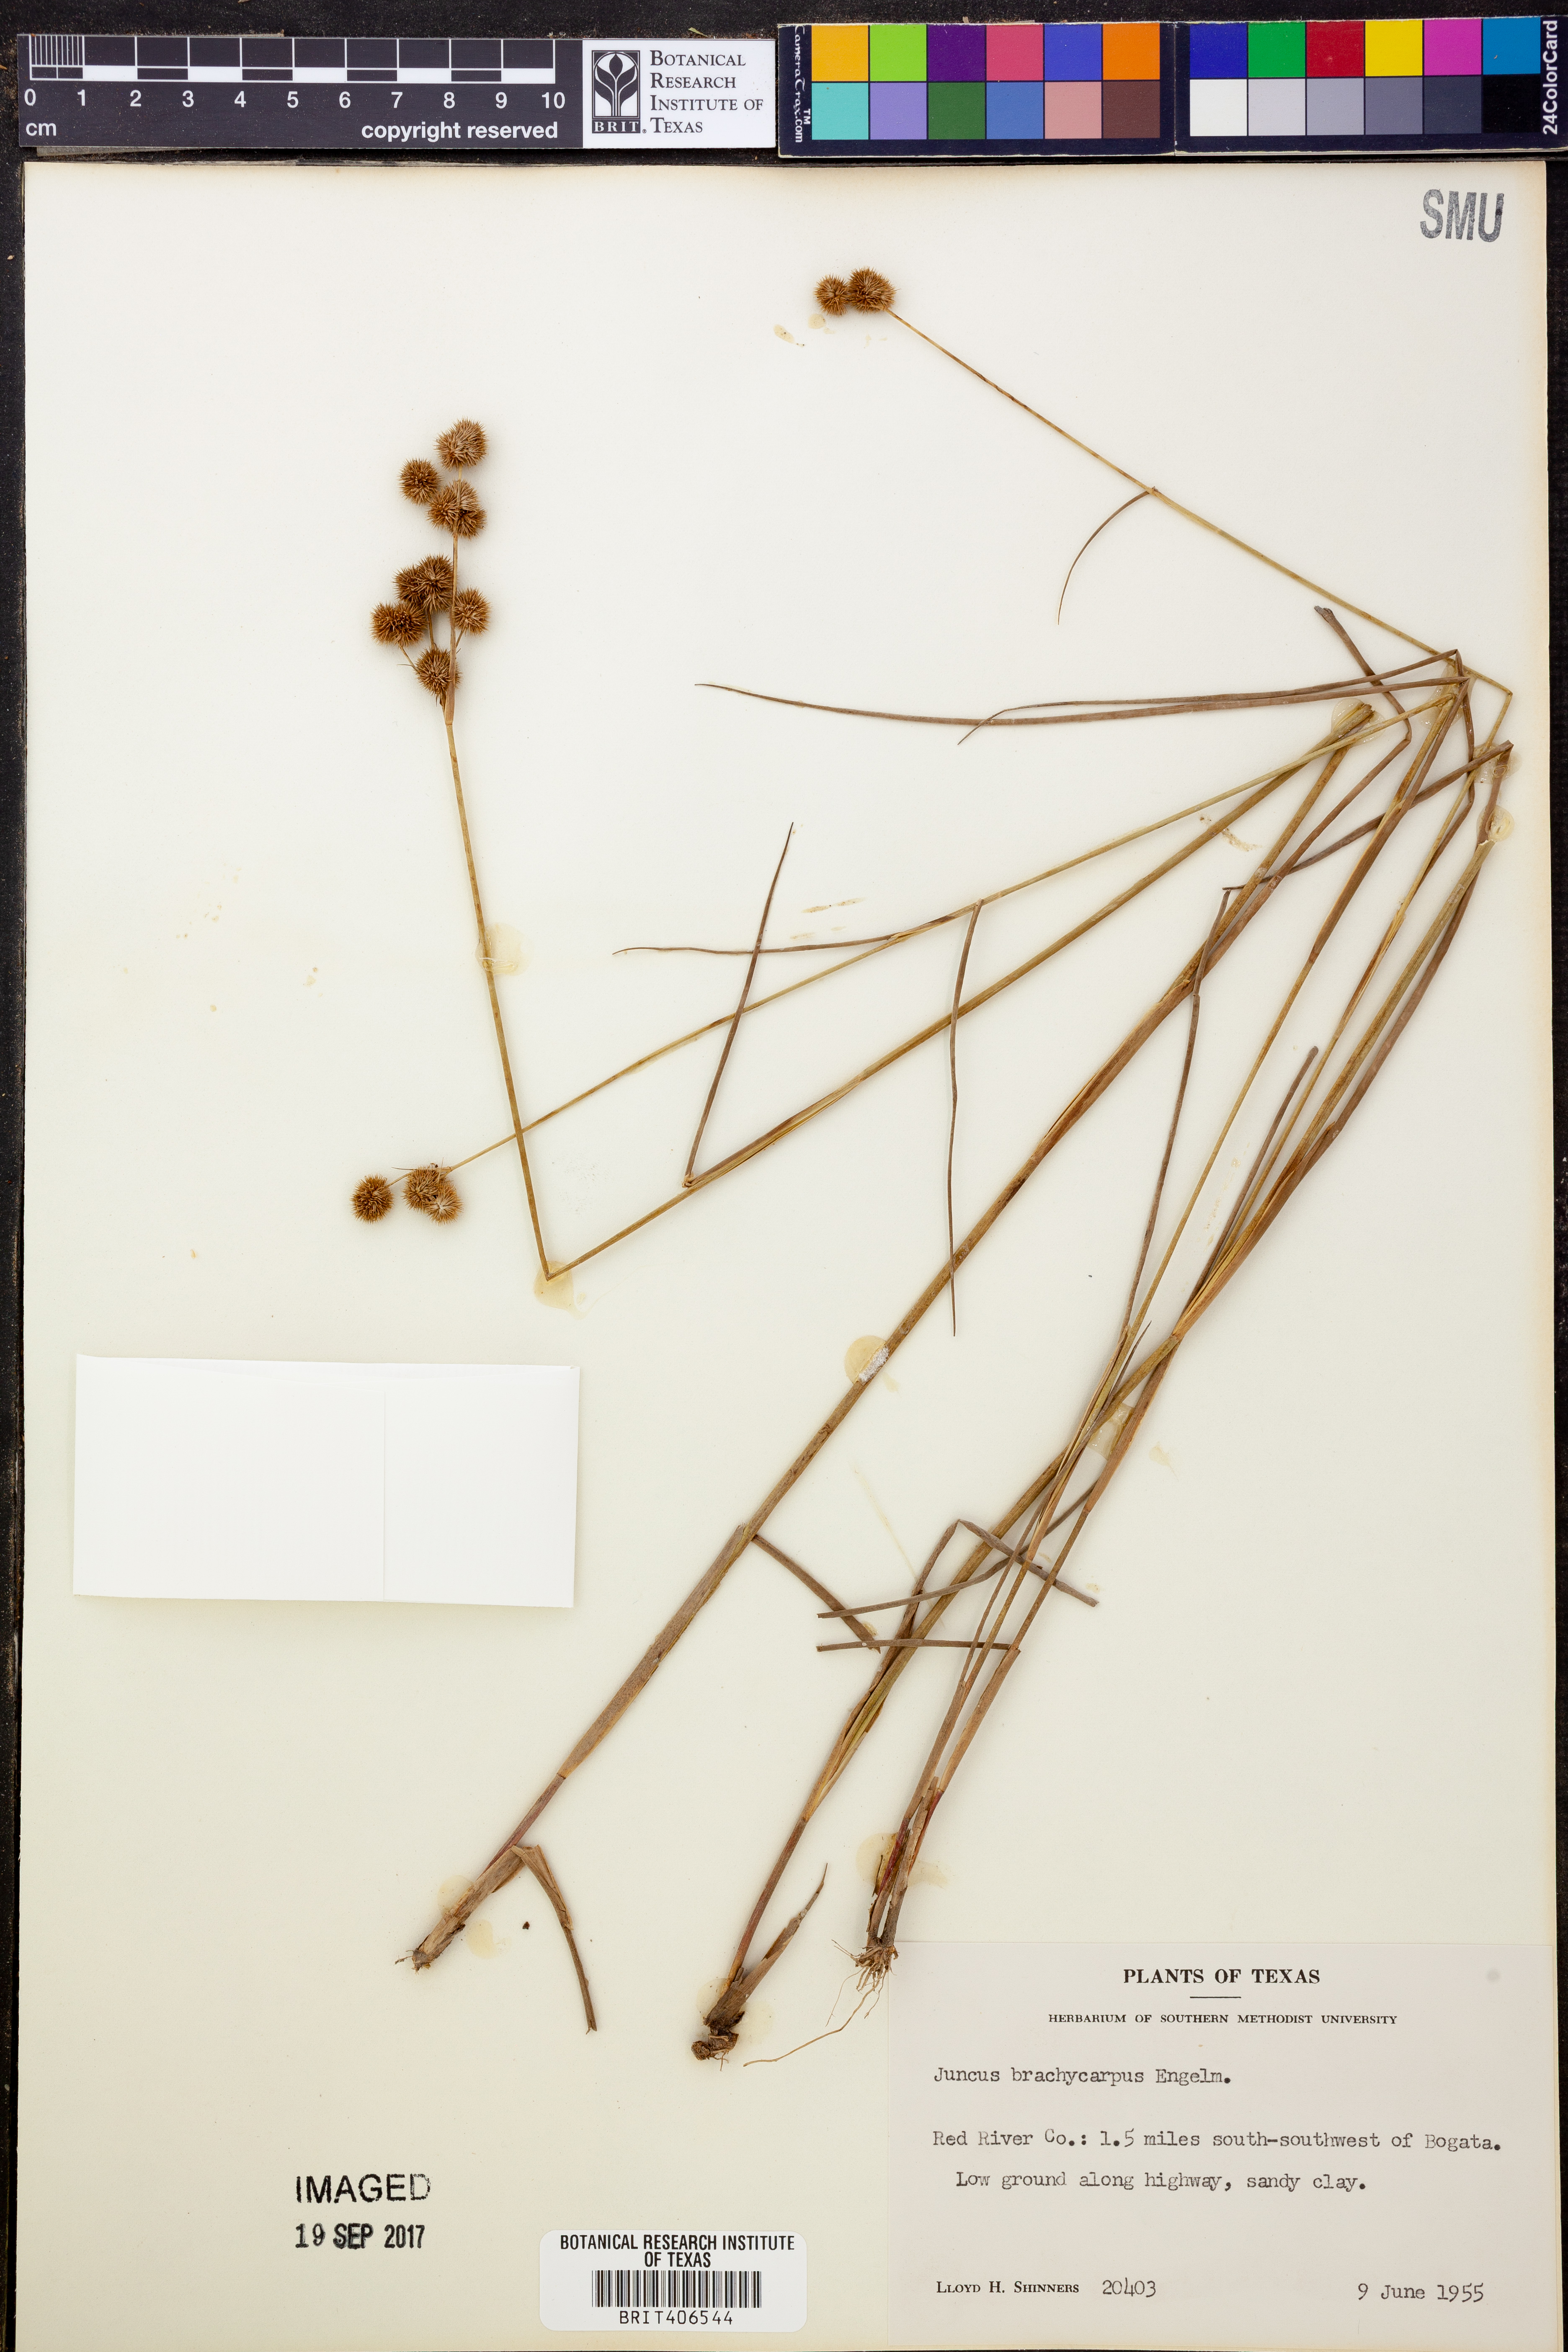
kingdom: Plantae
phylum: Tracheophyta
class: Liliopsida
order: Poales
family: Juncaceae
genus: Juncus
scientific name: Juncus brachycarpus
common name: Shore rush
